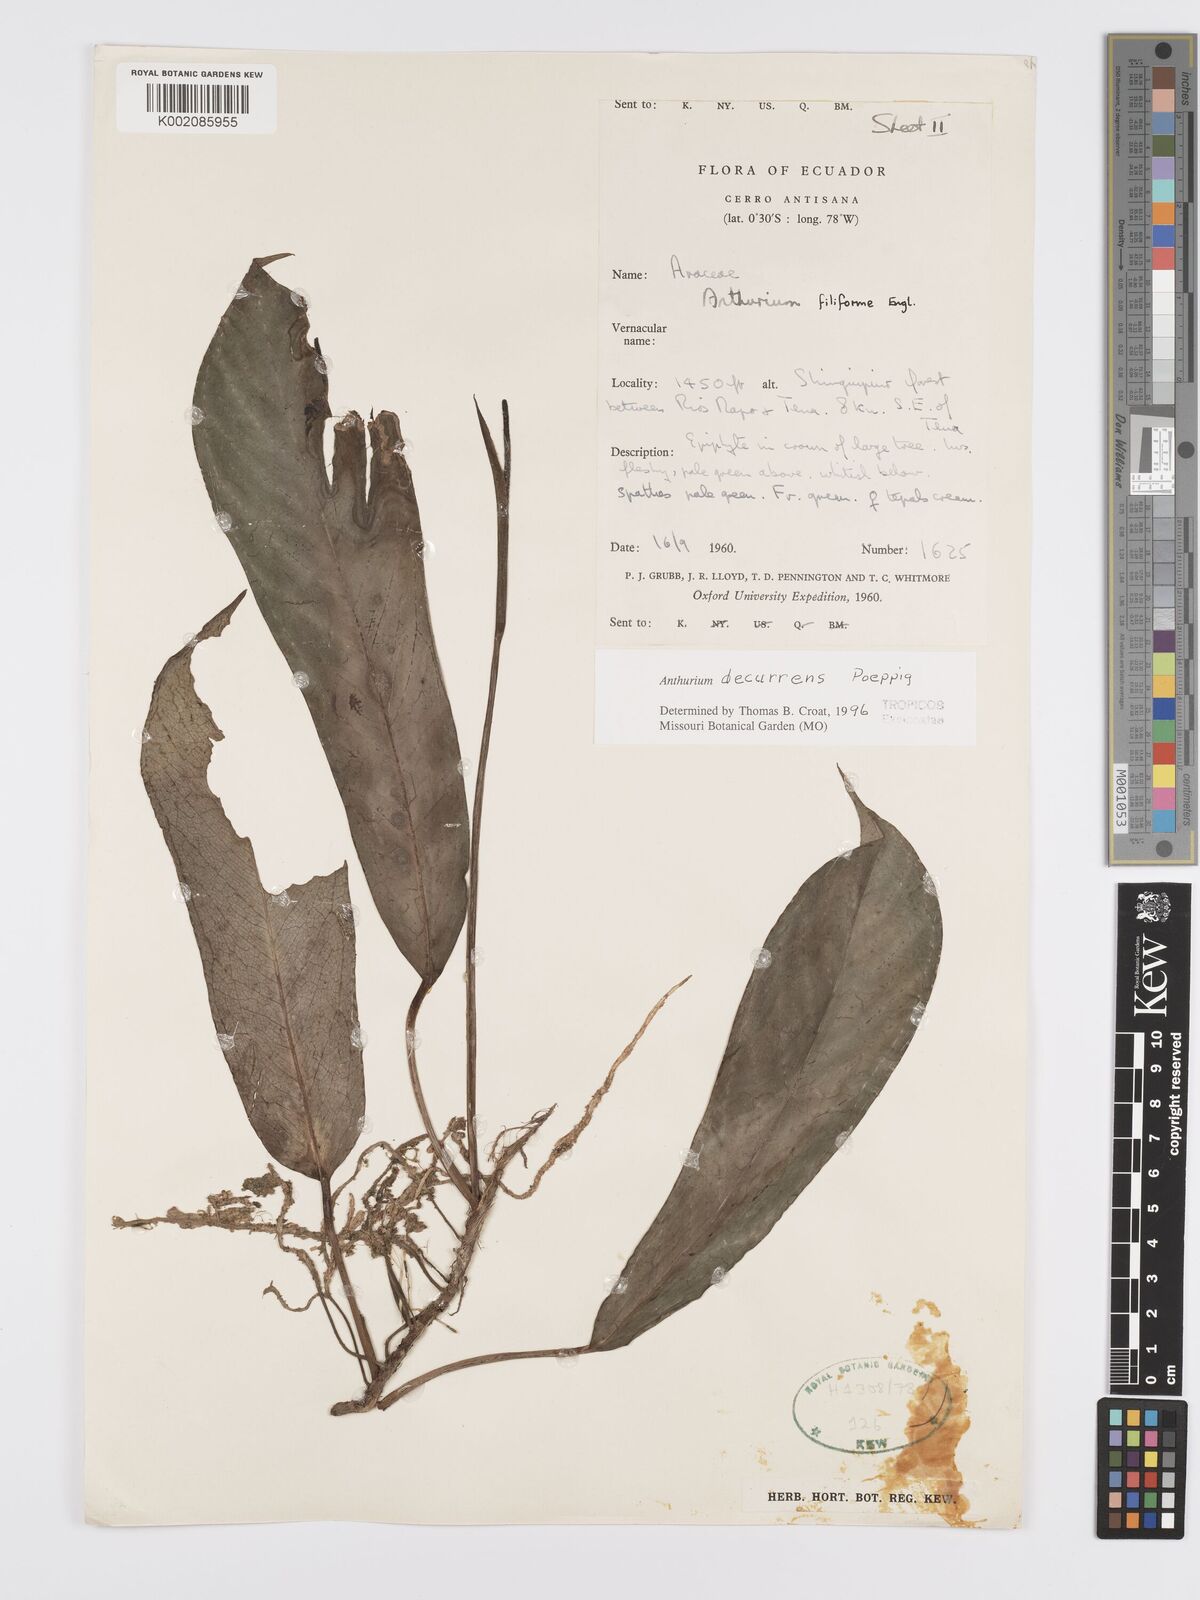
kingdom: Plantae
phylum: Tracheophyta
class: Liliopsida
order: Alismatales
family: Araceae
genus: Anthurium
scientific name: Anthurium decurrens
